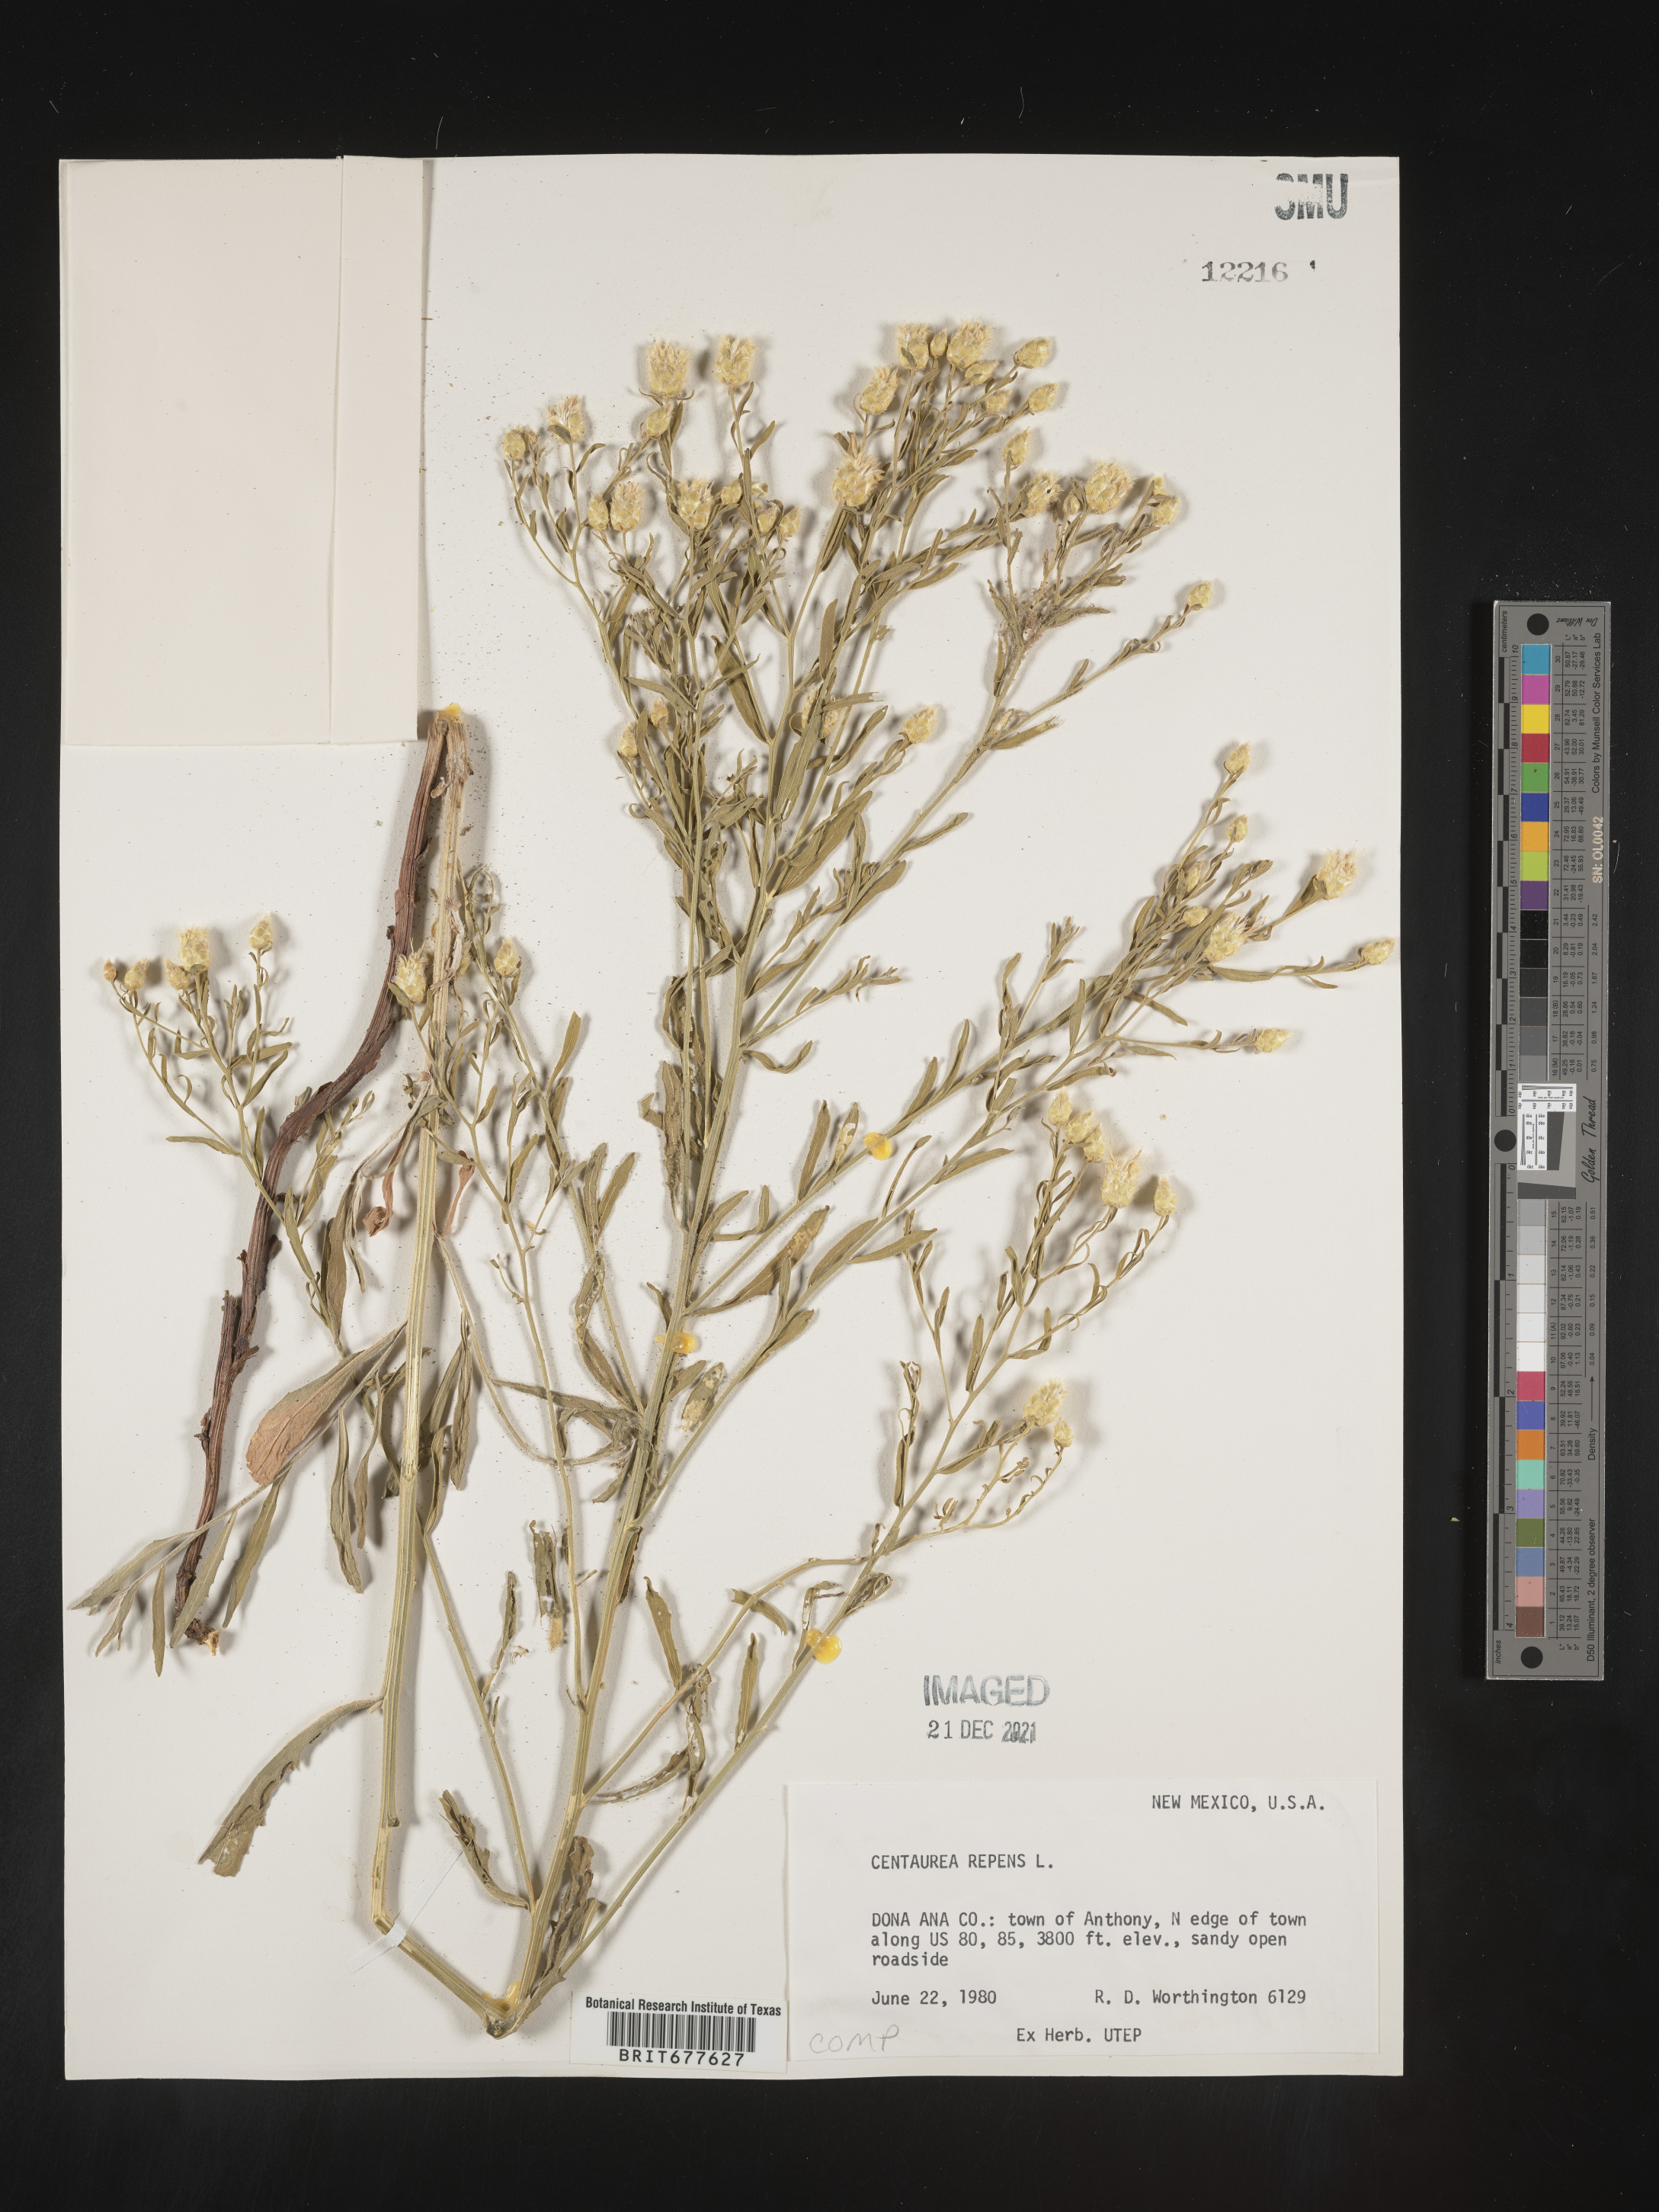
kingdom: Plantae
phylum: Tracheophyta
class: Magnoliopsida
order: Asterales
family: Asteraceae
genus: Leuzea
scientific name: Leuzea repens
